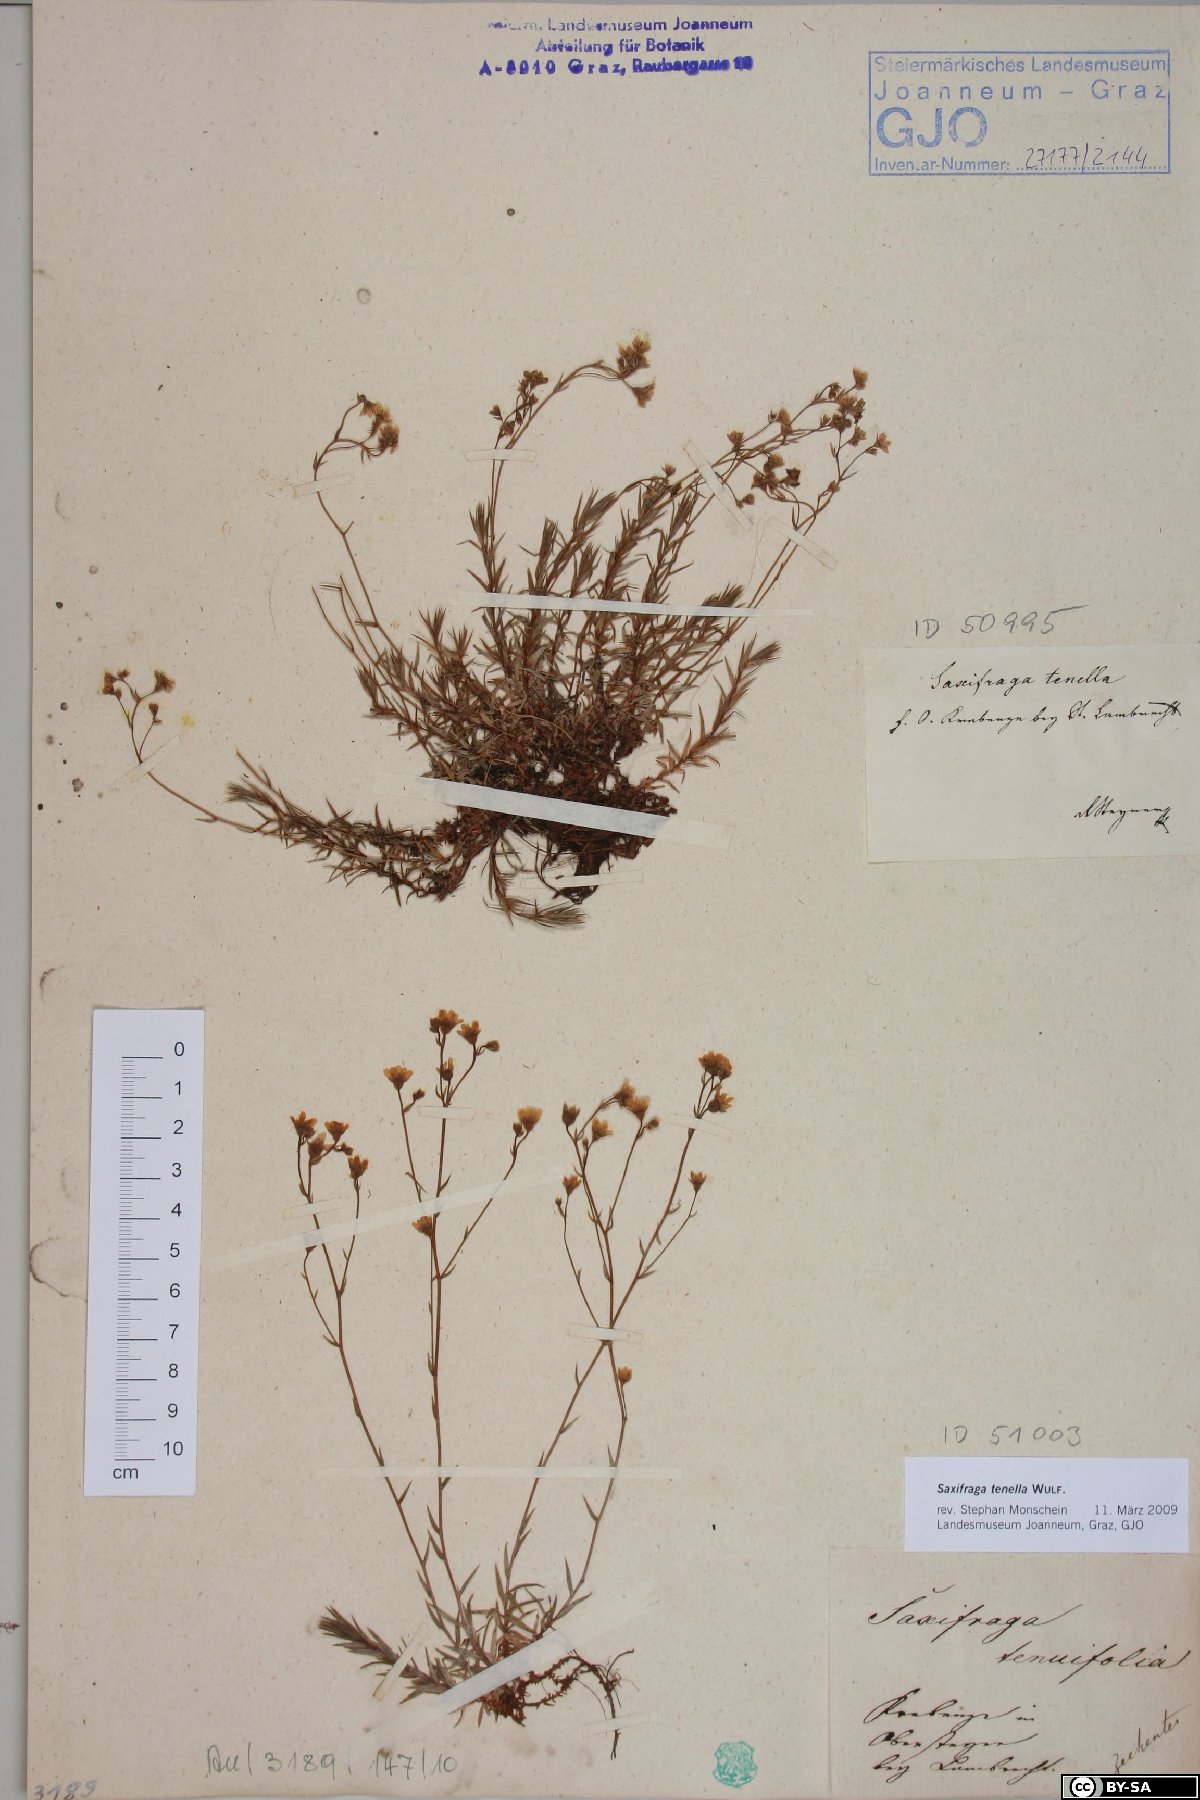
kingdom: Plantae
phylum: Tracheophyta
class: Magnoliopsida
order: Saxifragales
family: Saxifragaceae
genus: Saxifraga
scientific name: Saxifraga tenella
